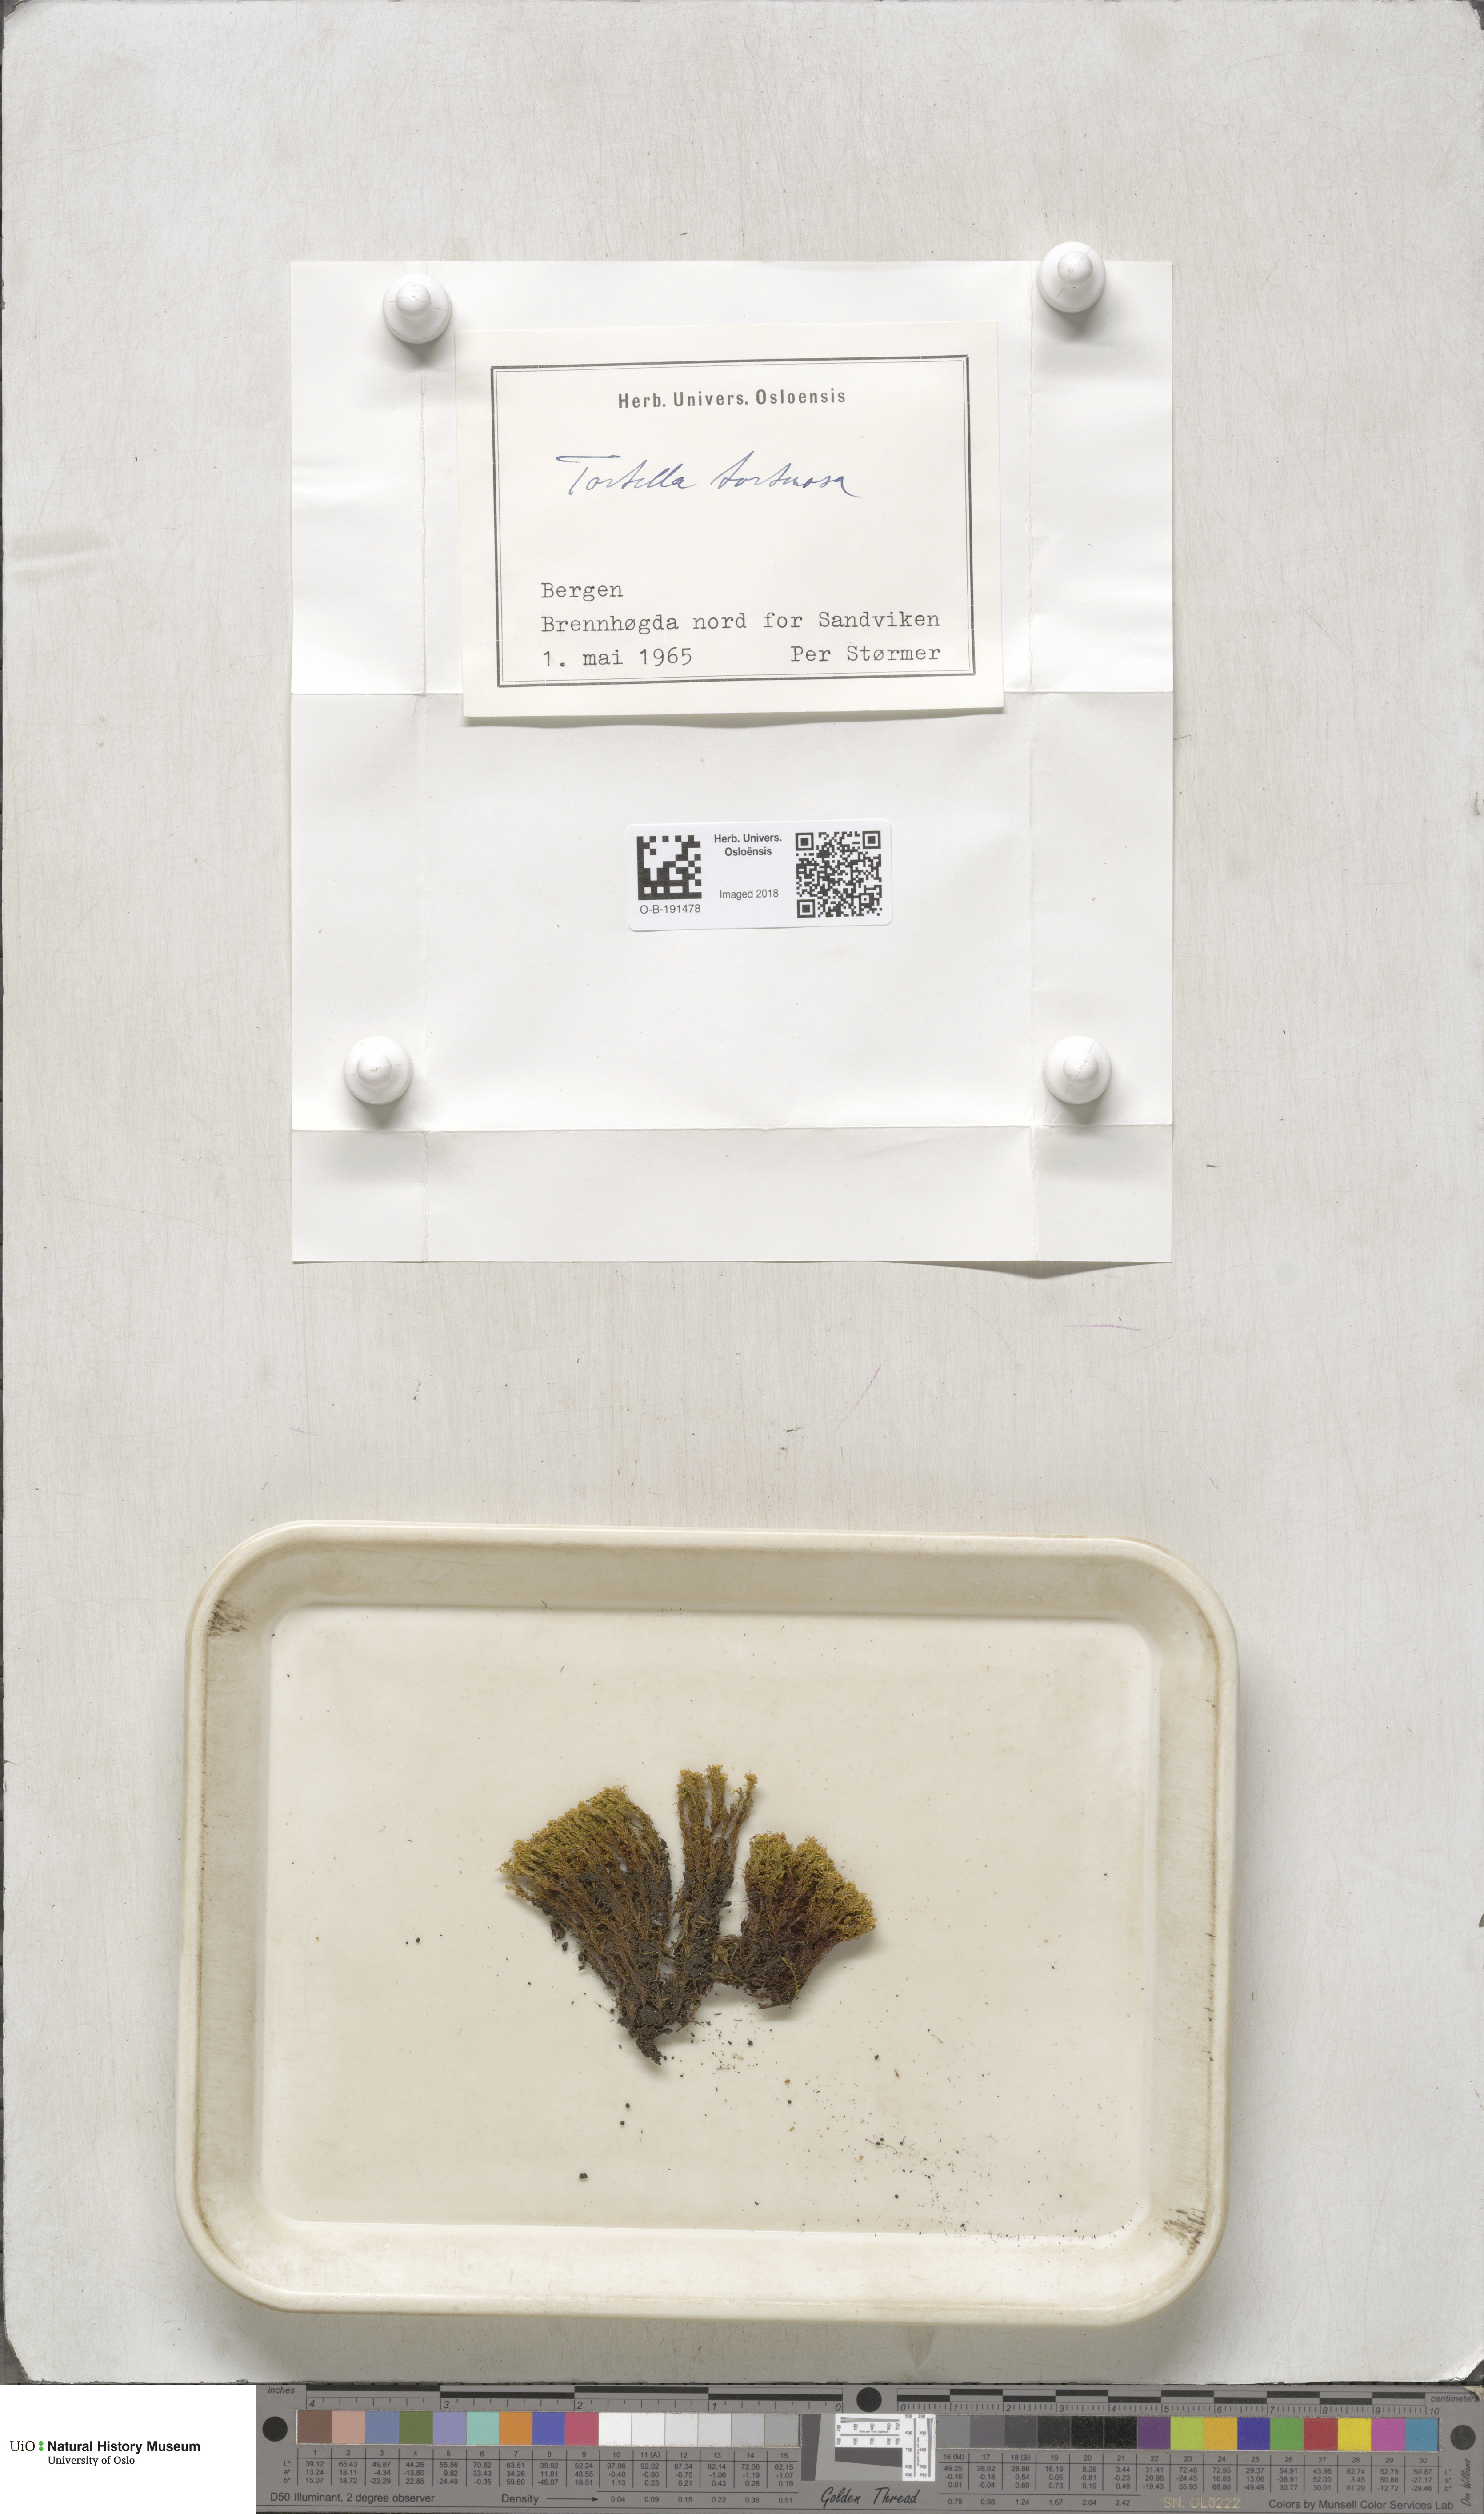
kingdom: Plantae
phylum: Bryophyta
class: Bryopsida
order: Pottiales
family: Pottiaceae
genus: Tortella
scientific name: Tortella tortuosa
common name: Frizzled crisp moss
